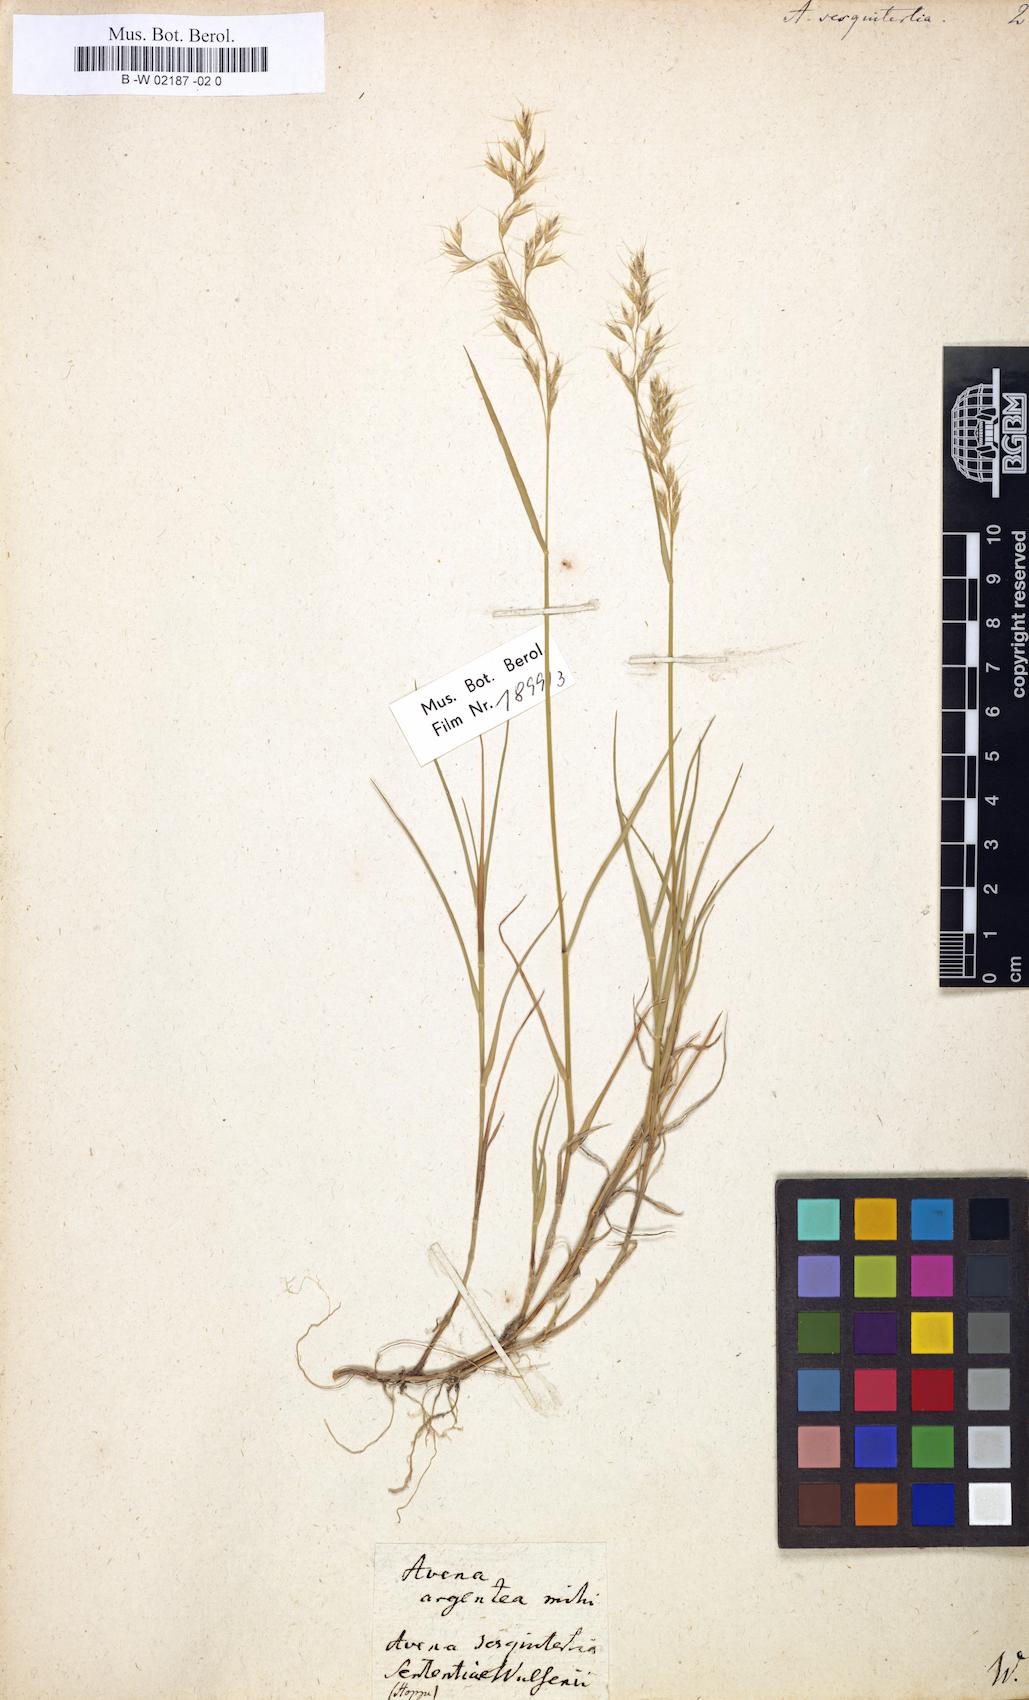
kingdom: Plantae
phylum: Tracheophyta
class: Liliopsida
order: Poales
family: Poaceae
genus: Avena
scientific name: Avena sesquitertia
